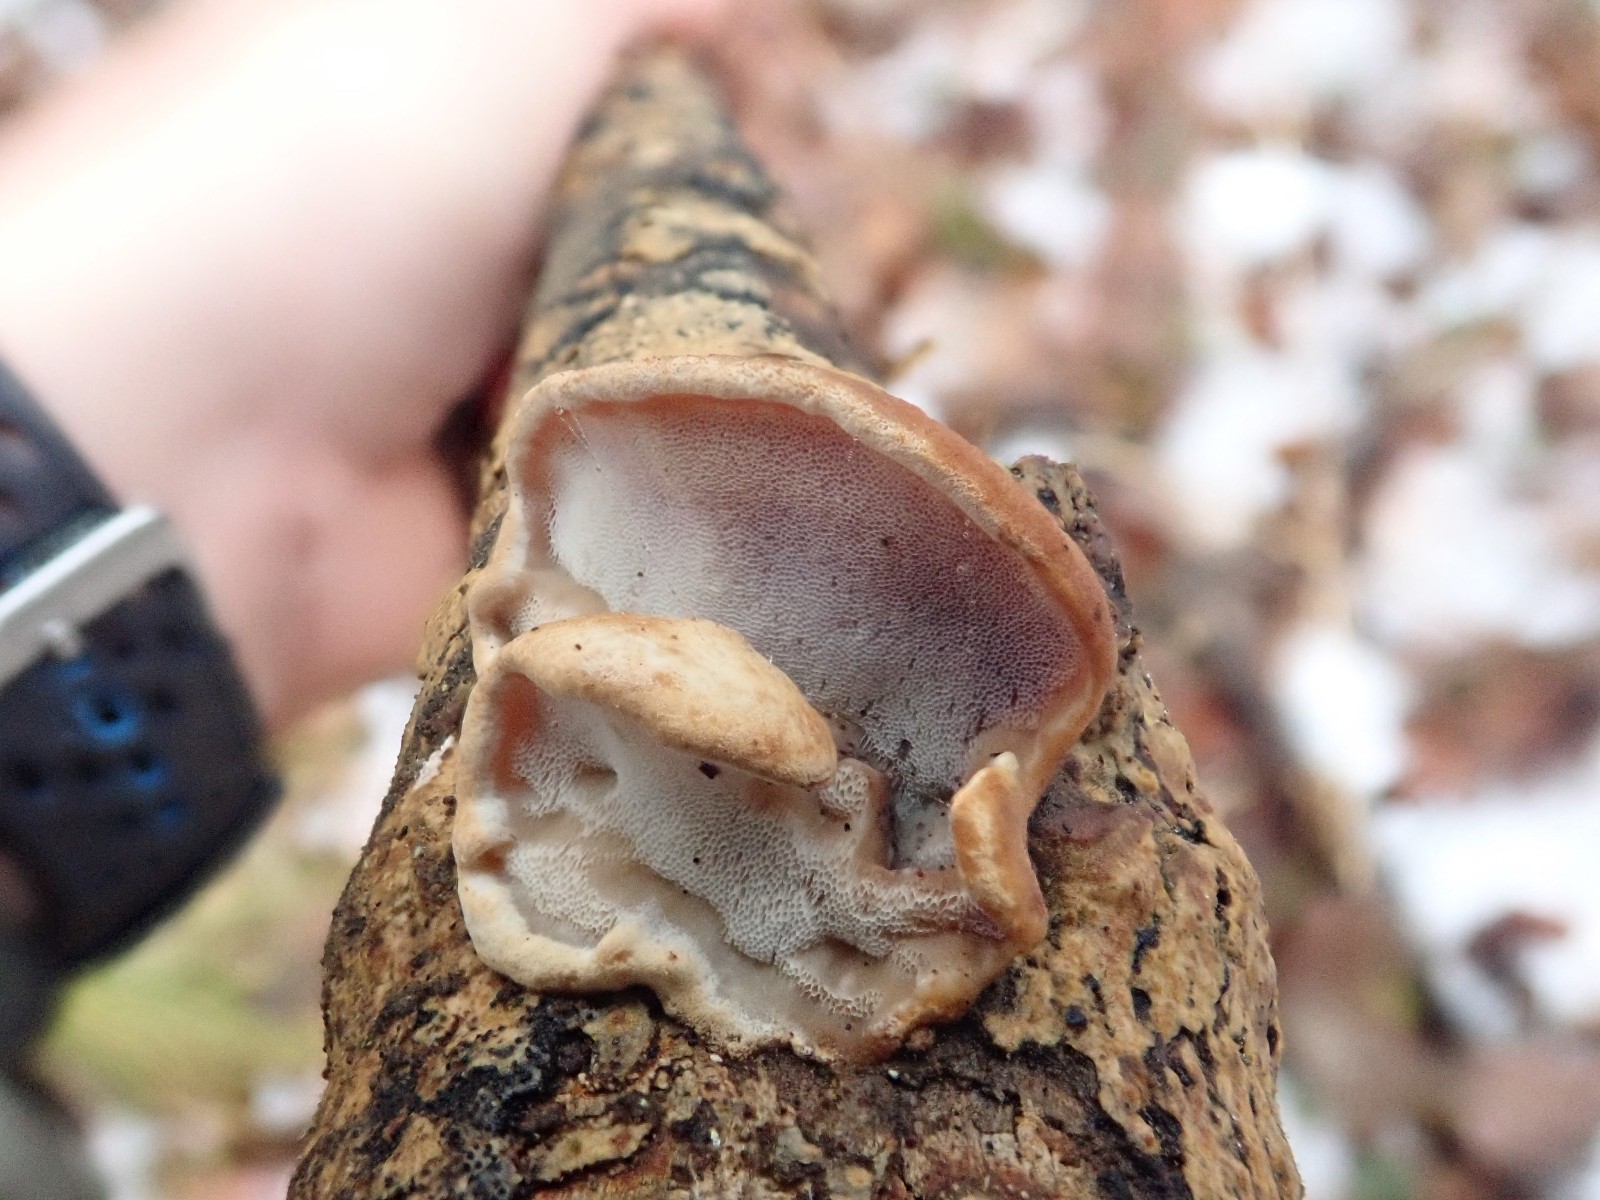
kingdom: Fungi
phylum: Basidiomycota
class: Agaricomycetes
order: Polyporales
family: Incrustoporiaceae
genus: Skeletocutis
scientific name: Skeletocutis nemoralis
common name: stor krystalporesvamp
